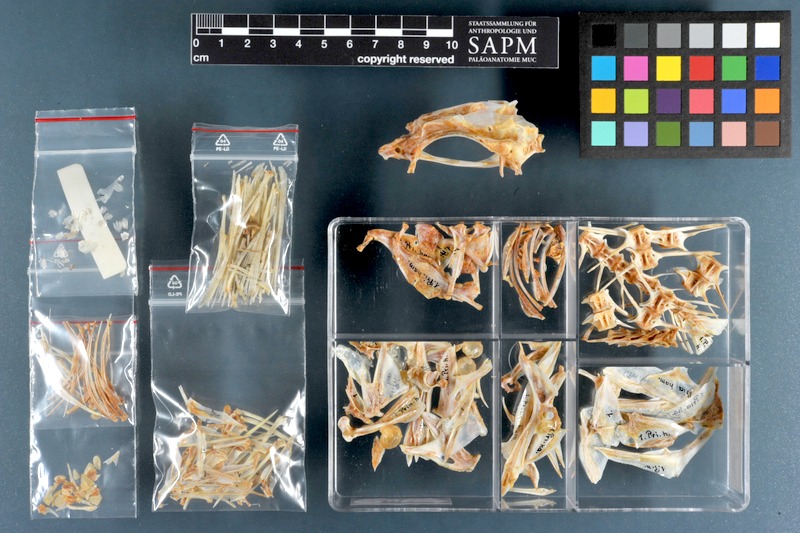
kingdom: Animalia
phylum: Chordata
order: Perciformes
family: Priacanthidae
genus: Priacanthus
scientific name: Priacanthus hamrur
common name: Moontail bullseye
